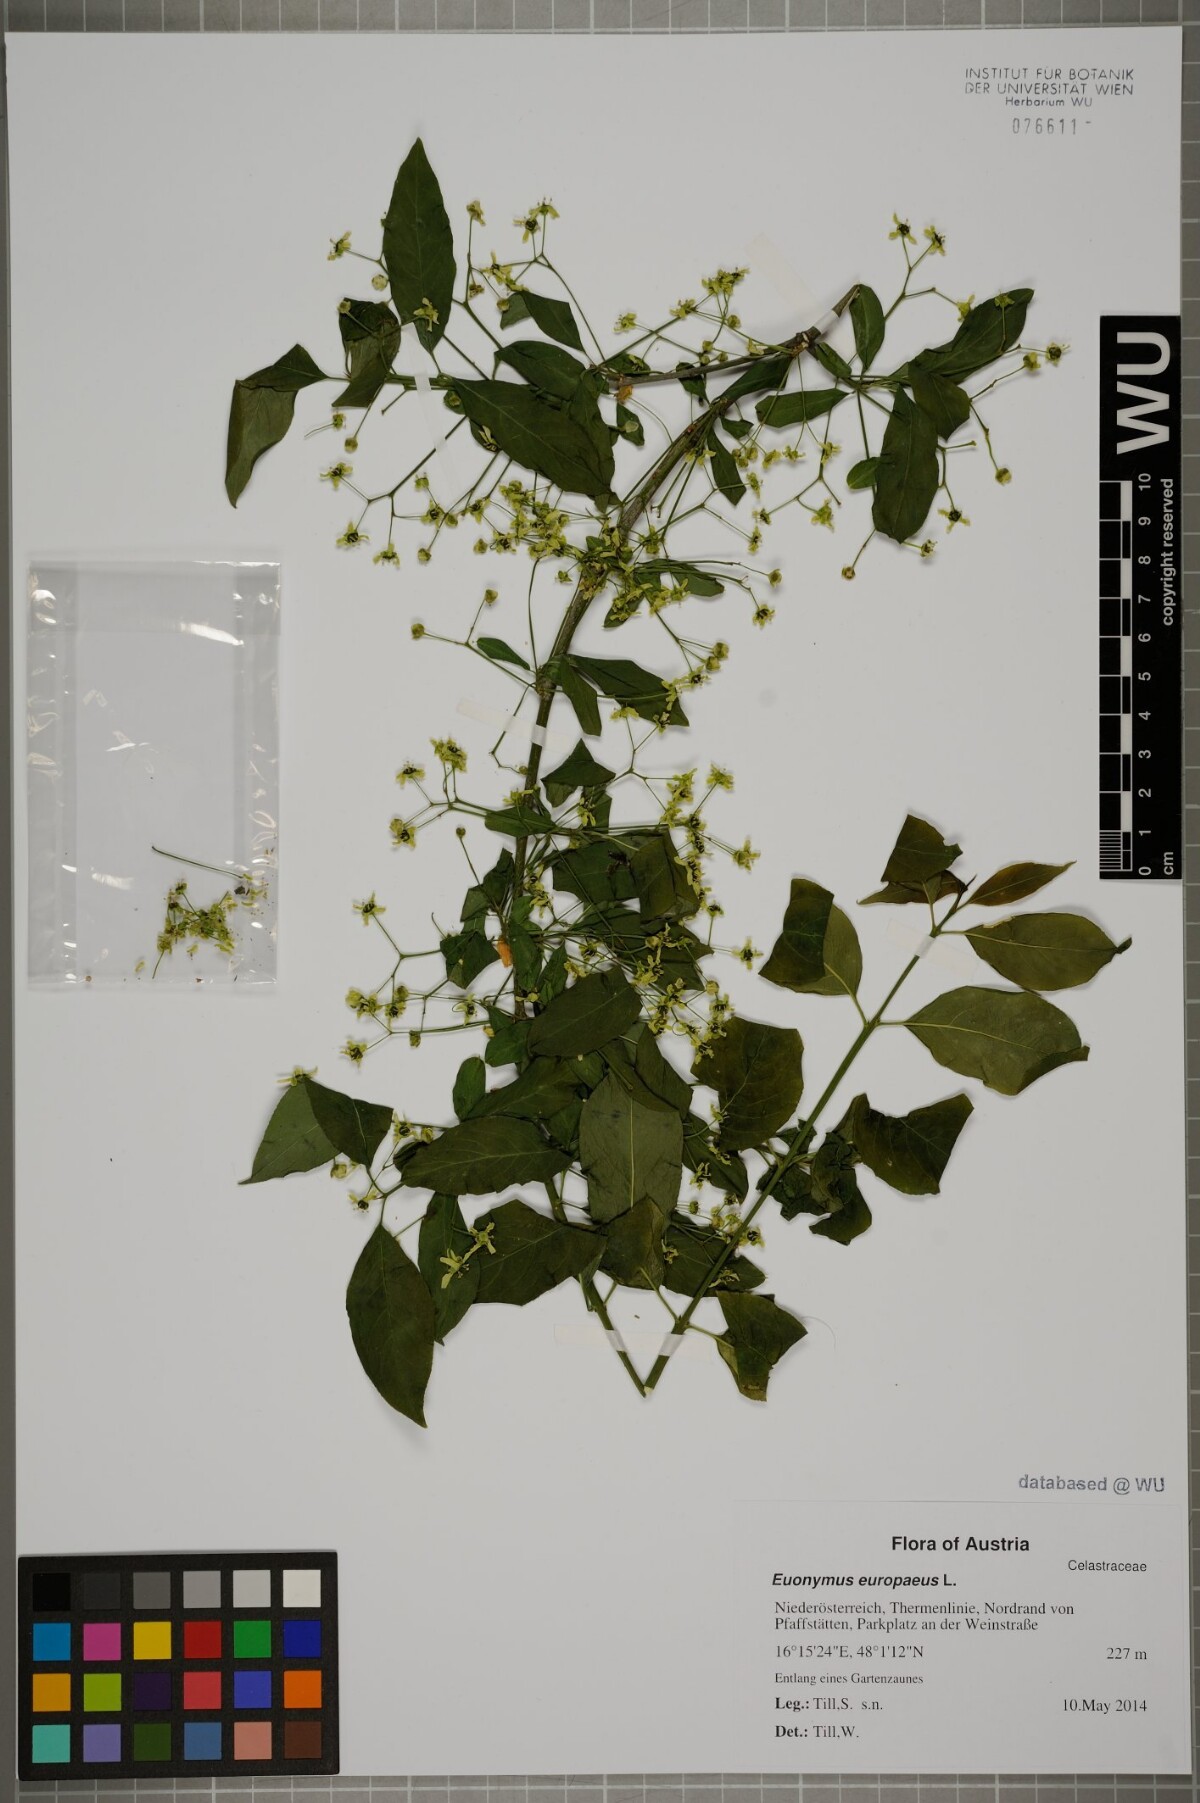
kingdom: Plantae
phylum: Tracheophyta
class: Magnoliopsida
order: Celastrales
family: Celastraceae
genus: Euonymus
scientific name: Euonymus europaeus
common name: Spindle
